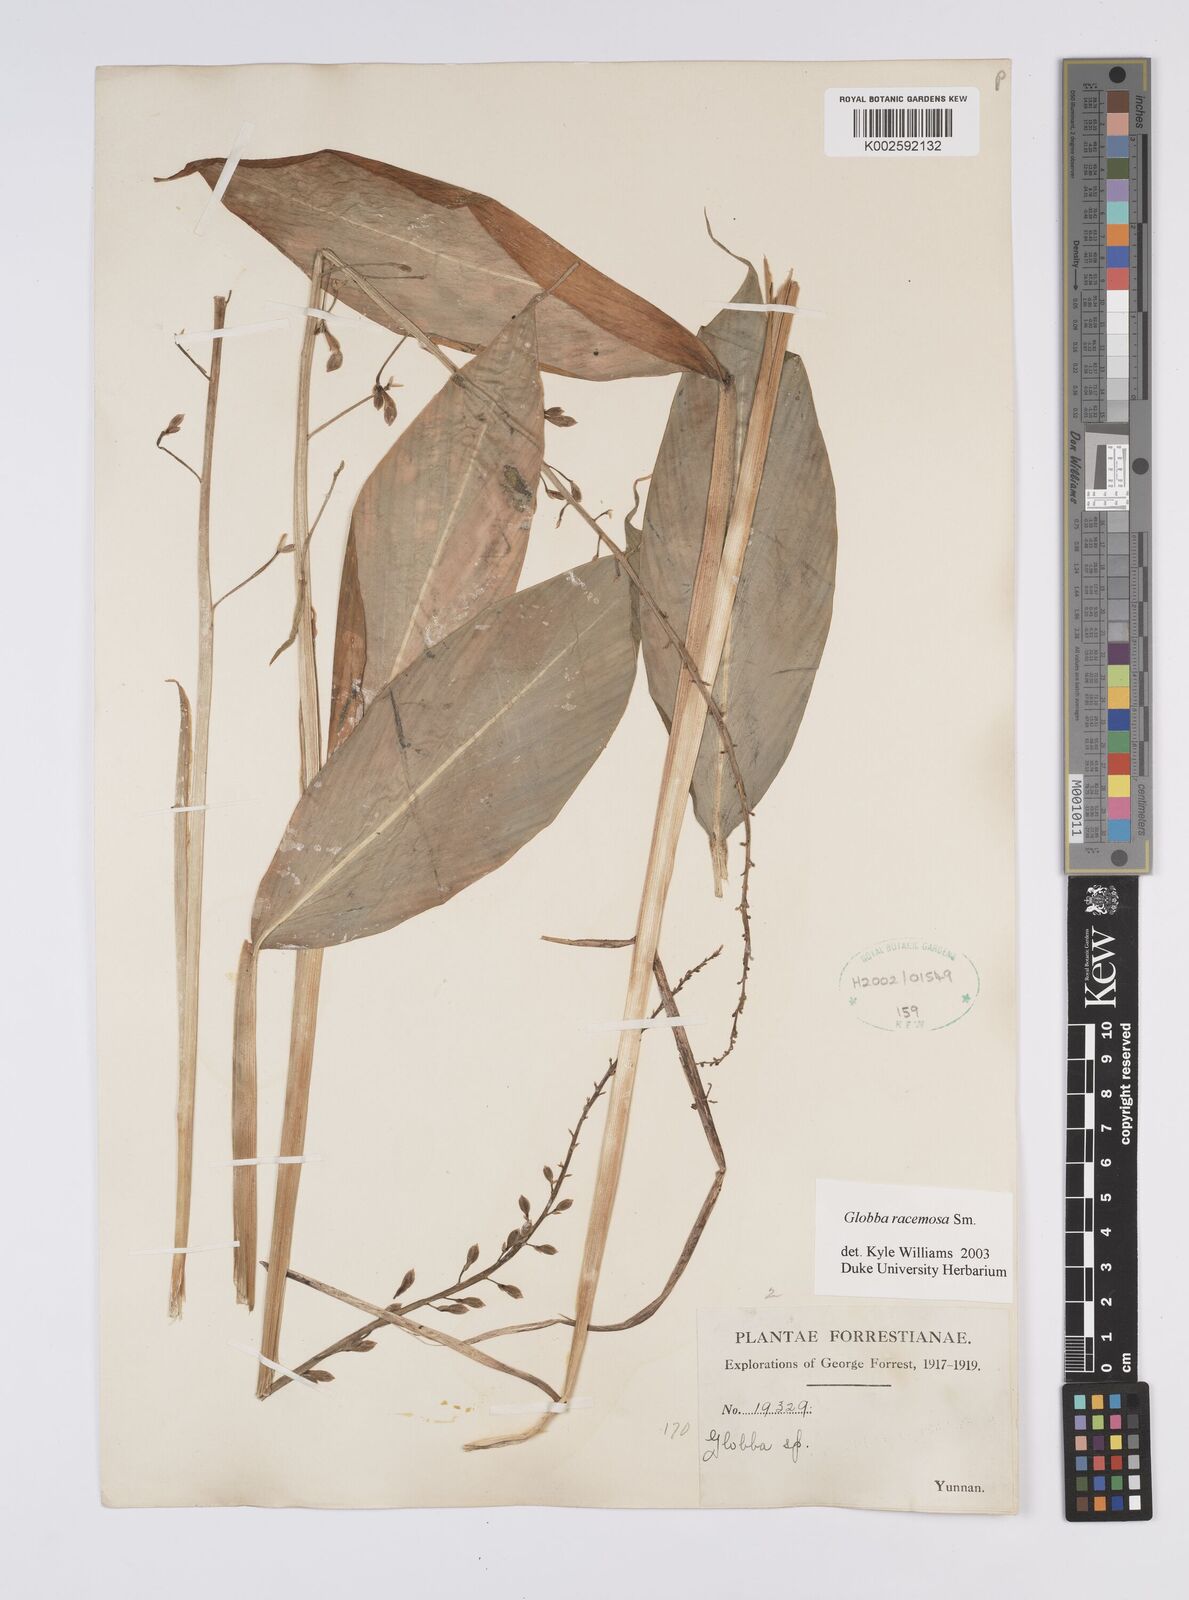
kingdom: Plantae
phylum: Tracheophyta
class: Liliopsida
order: Zingiberales
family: Zingiberaceae
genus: Globba
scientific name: Globba racemosa
